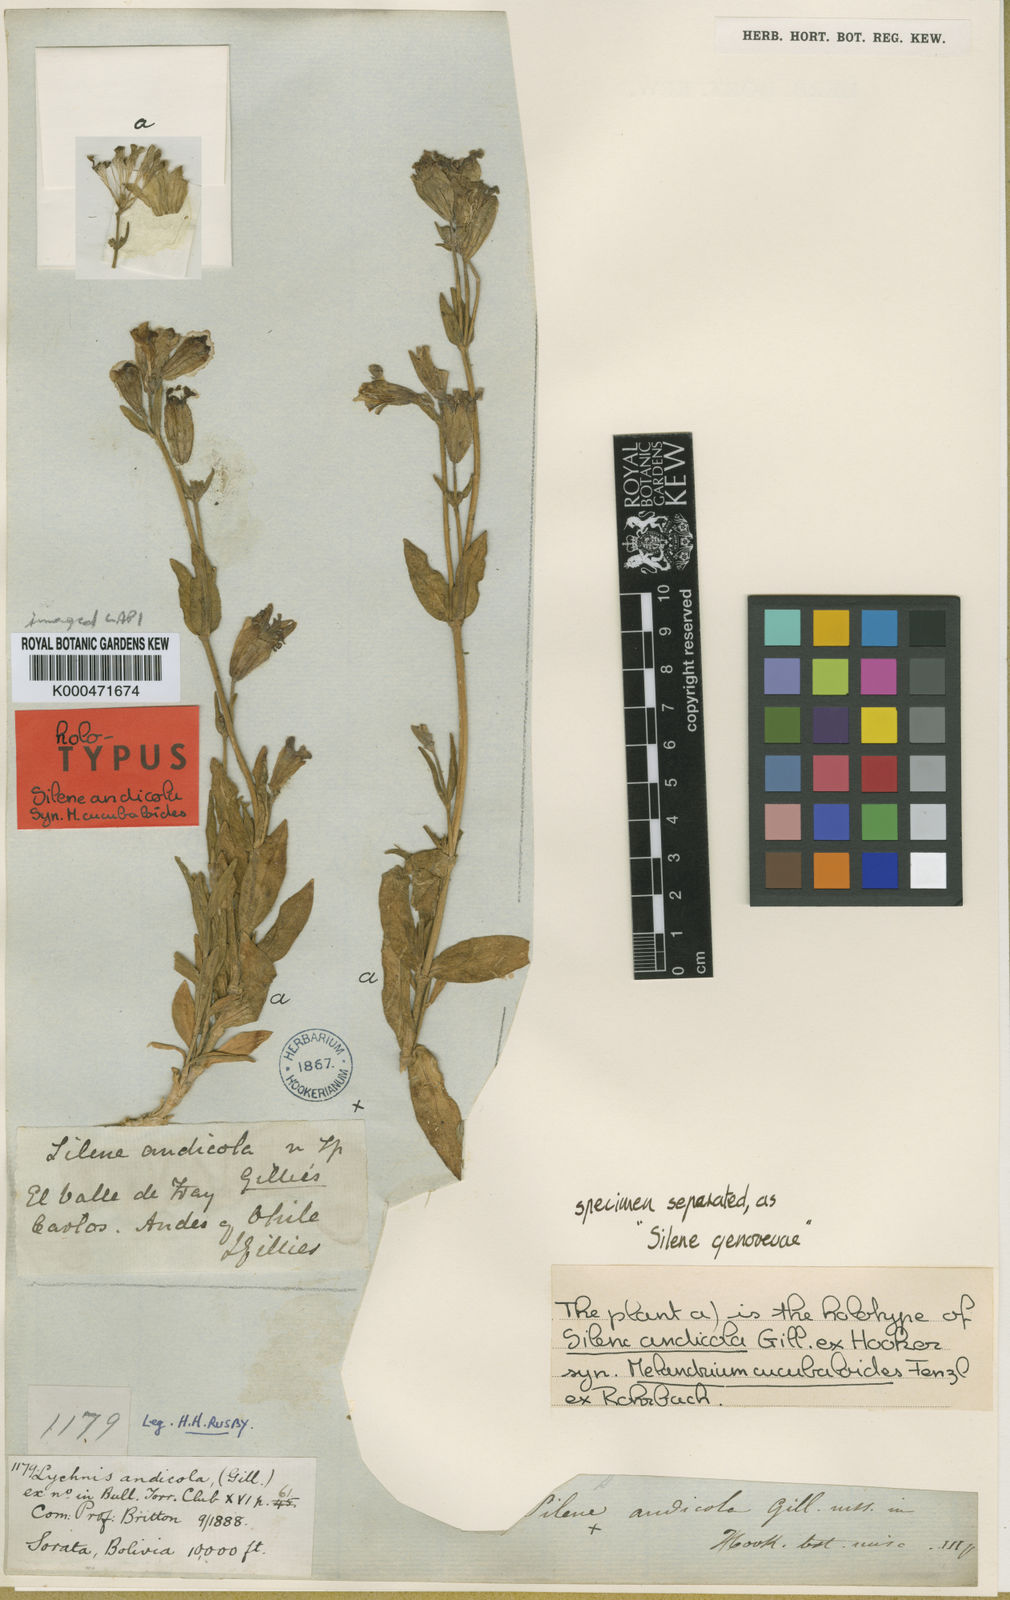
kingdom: Plantae
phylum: Tracheophyta
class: Magnoliopsida
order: Caryophyllales
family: Caryophyllaceae
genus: Silene
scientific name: Silene andicola
